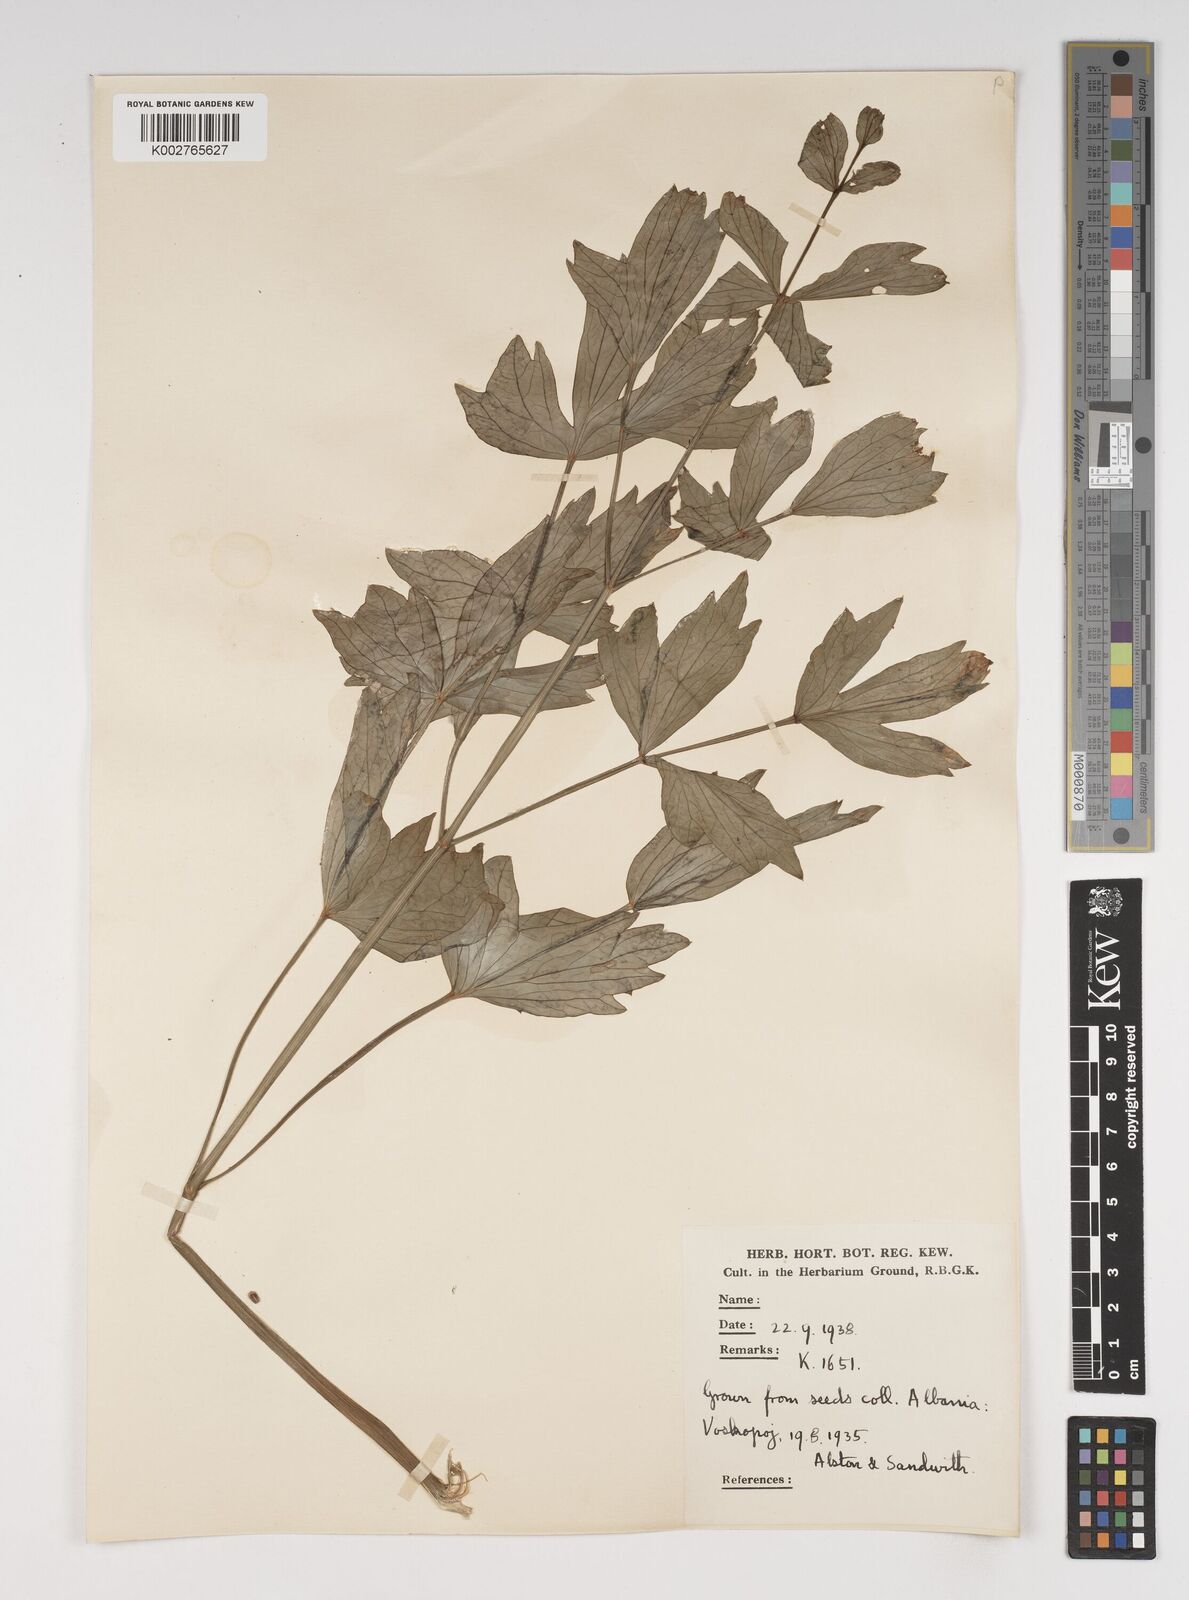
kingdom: Plantae
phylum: Tracheophyta
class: Magnoliopsida
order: Apiales
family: Apiaceae
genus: Levisticum
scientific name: Levisticum officinale
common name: Lovage
